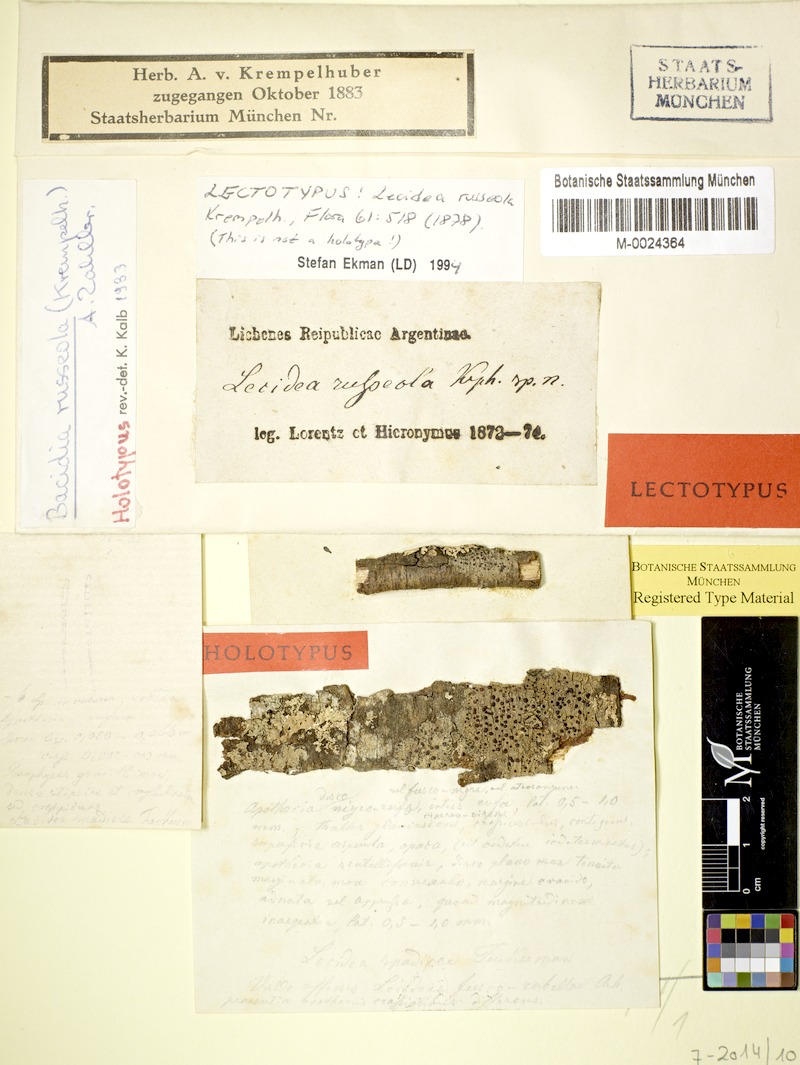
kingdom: Fungi
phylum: Ascomycota
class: Lecanoromycetes
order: Lecanorales
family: Ramalinaceae
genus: Bacidia
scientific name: Bacidia russeola
